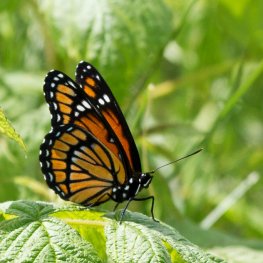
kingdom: Animalia
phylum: Arthropoda
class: Insecta
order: Lepidoptera
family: Nymphalidae
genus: Limenitis
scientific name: Limenitis archippus
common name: Viceroy
